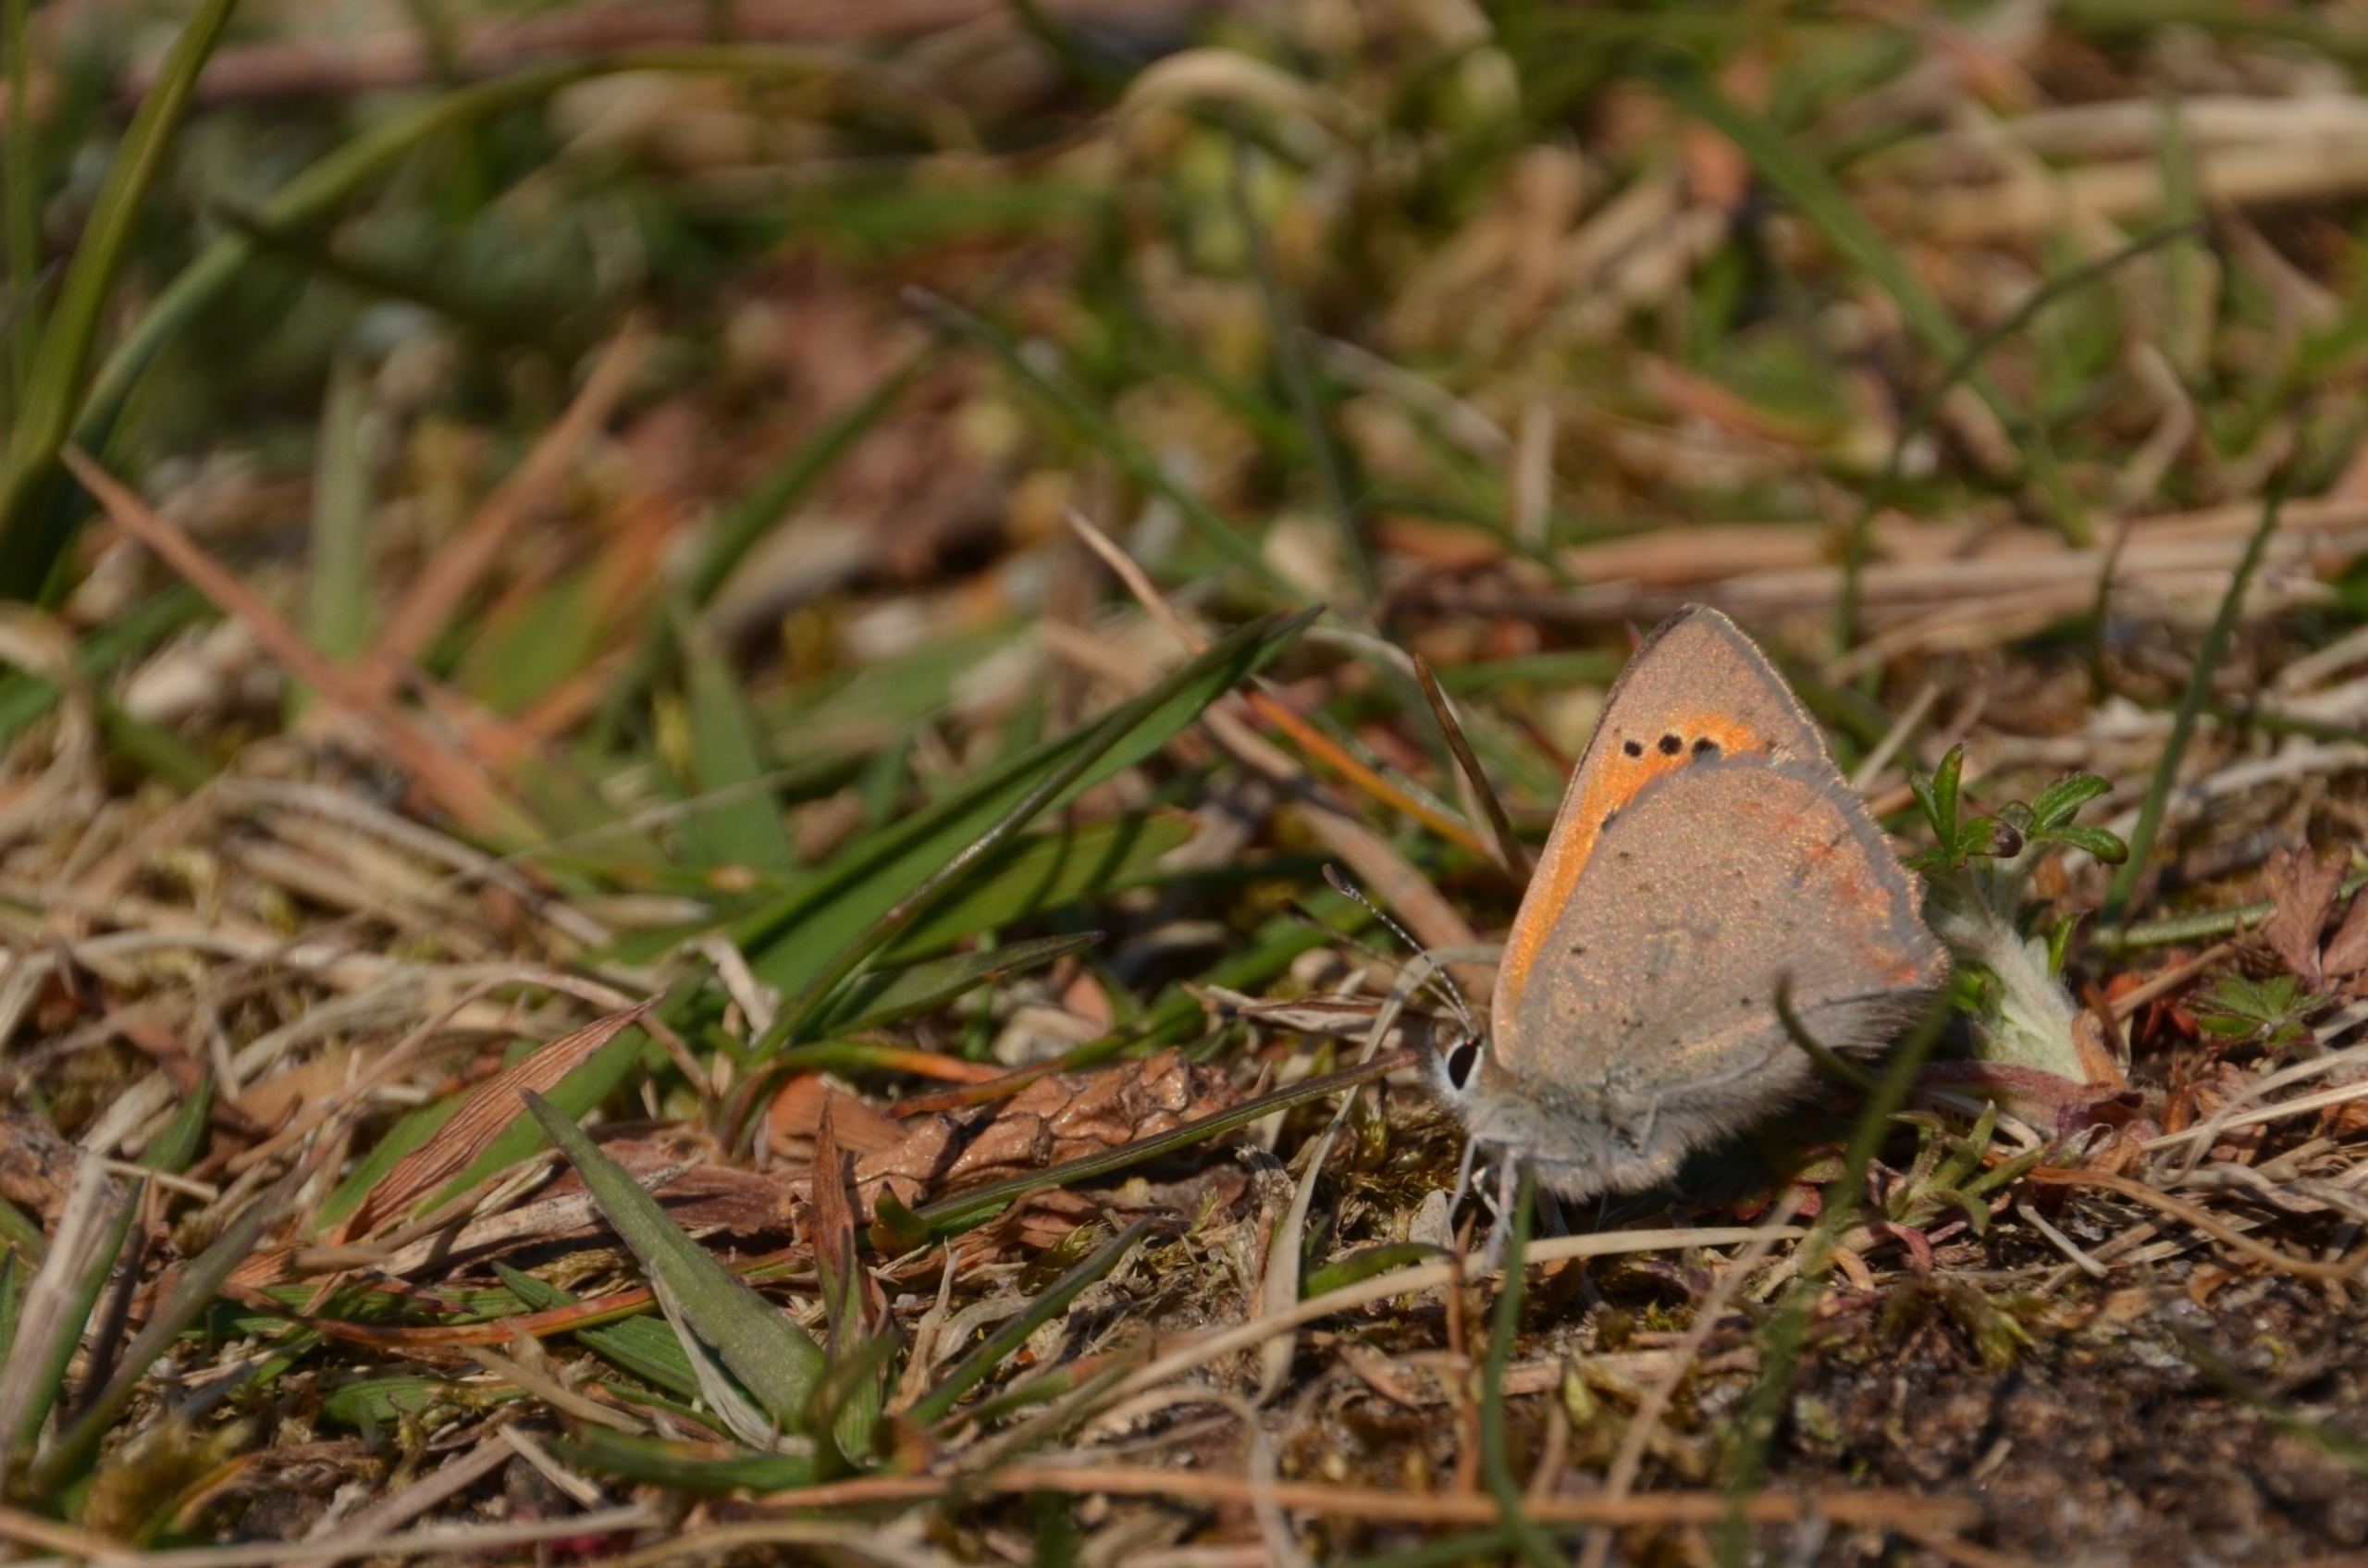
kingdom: Animalia
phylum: Arthropoda
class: Insecta
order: Lepidoptera
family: Lycaenidae
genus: Lycaena
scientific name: Lycaena phlaeas
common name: Lille ildfugl
